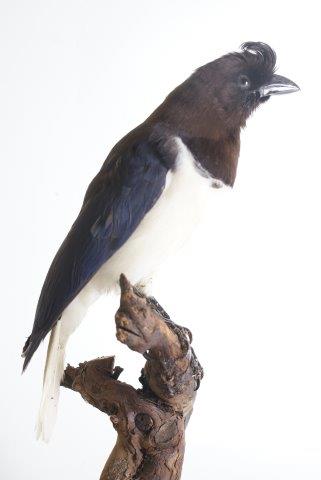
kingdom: Animalia
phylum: Chordata
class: Aves
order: Passeriformes
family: Corvidae
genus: Cyanocorax
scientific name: Cyanocorax cristatellus
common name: Curl-crested jay
